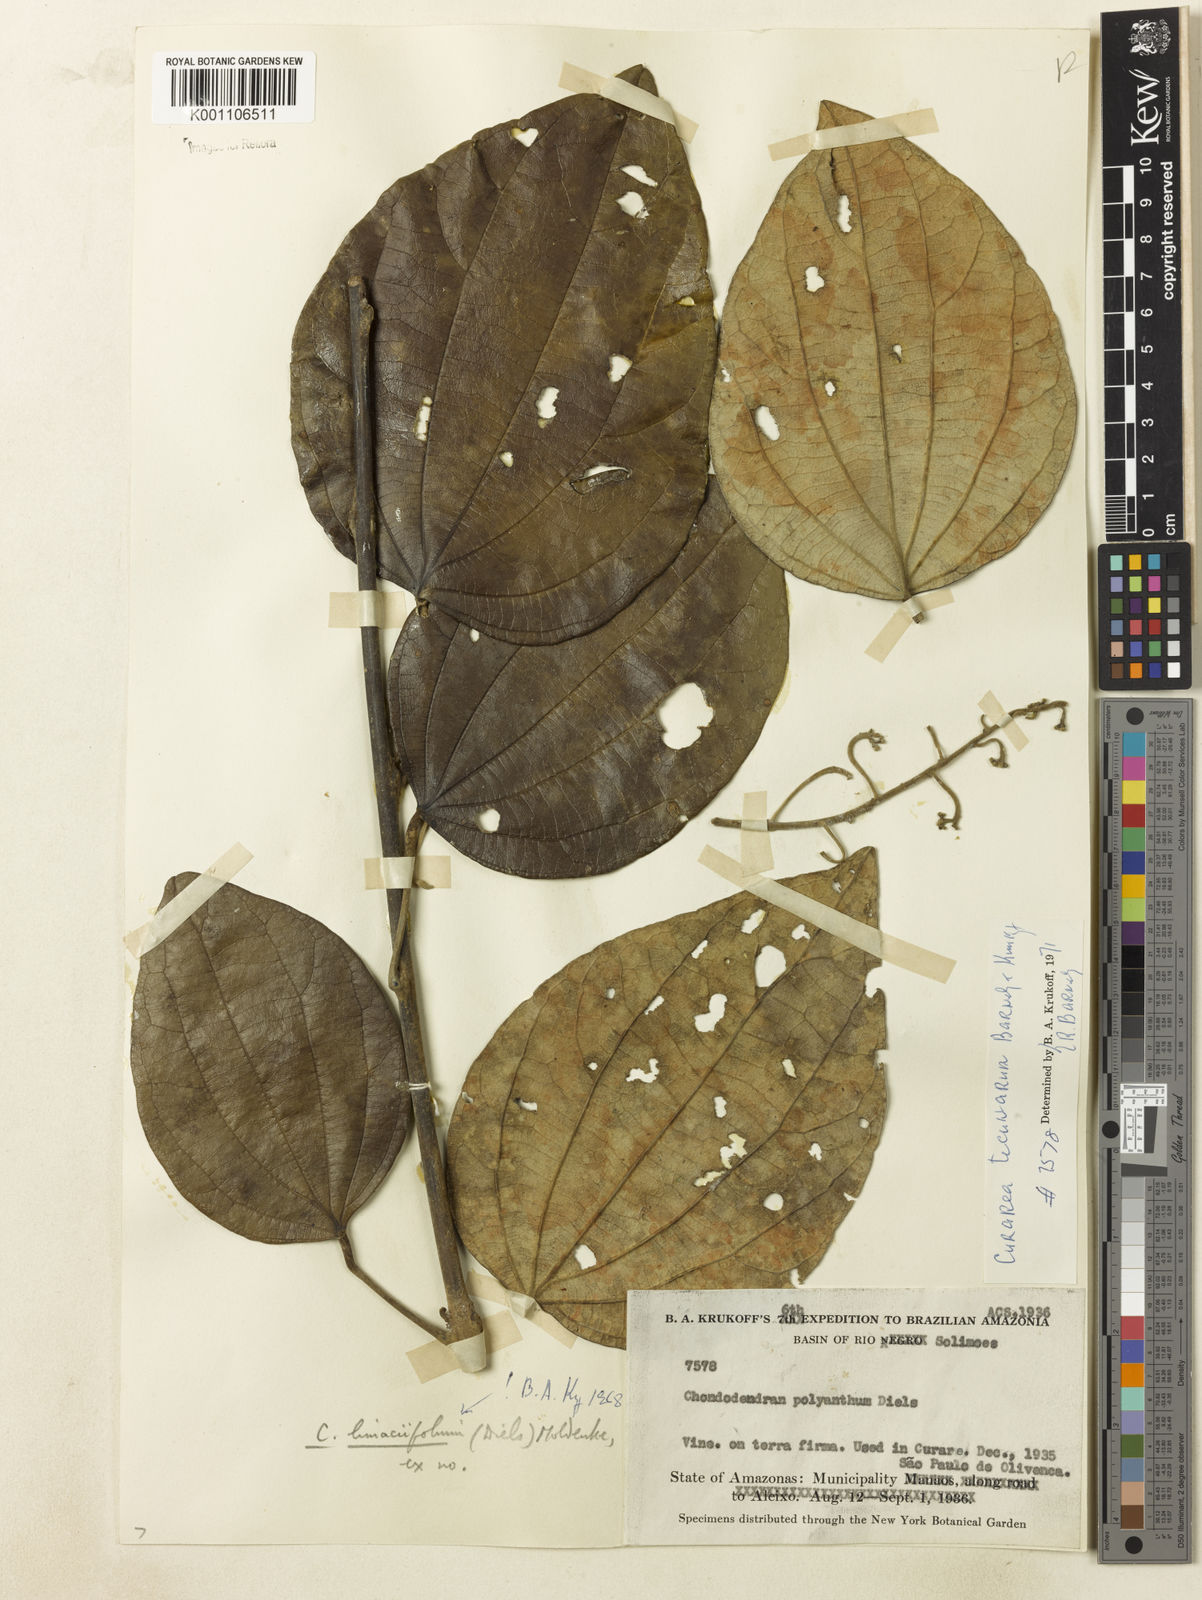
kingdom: Plantae
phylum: Tracheophyta
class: Magnoliopsida
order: Ranunculales
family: Menispermaceae
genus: Curarea
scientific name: Curarea tecunarum
